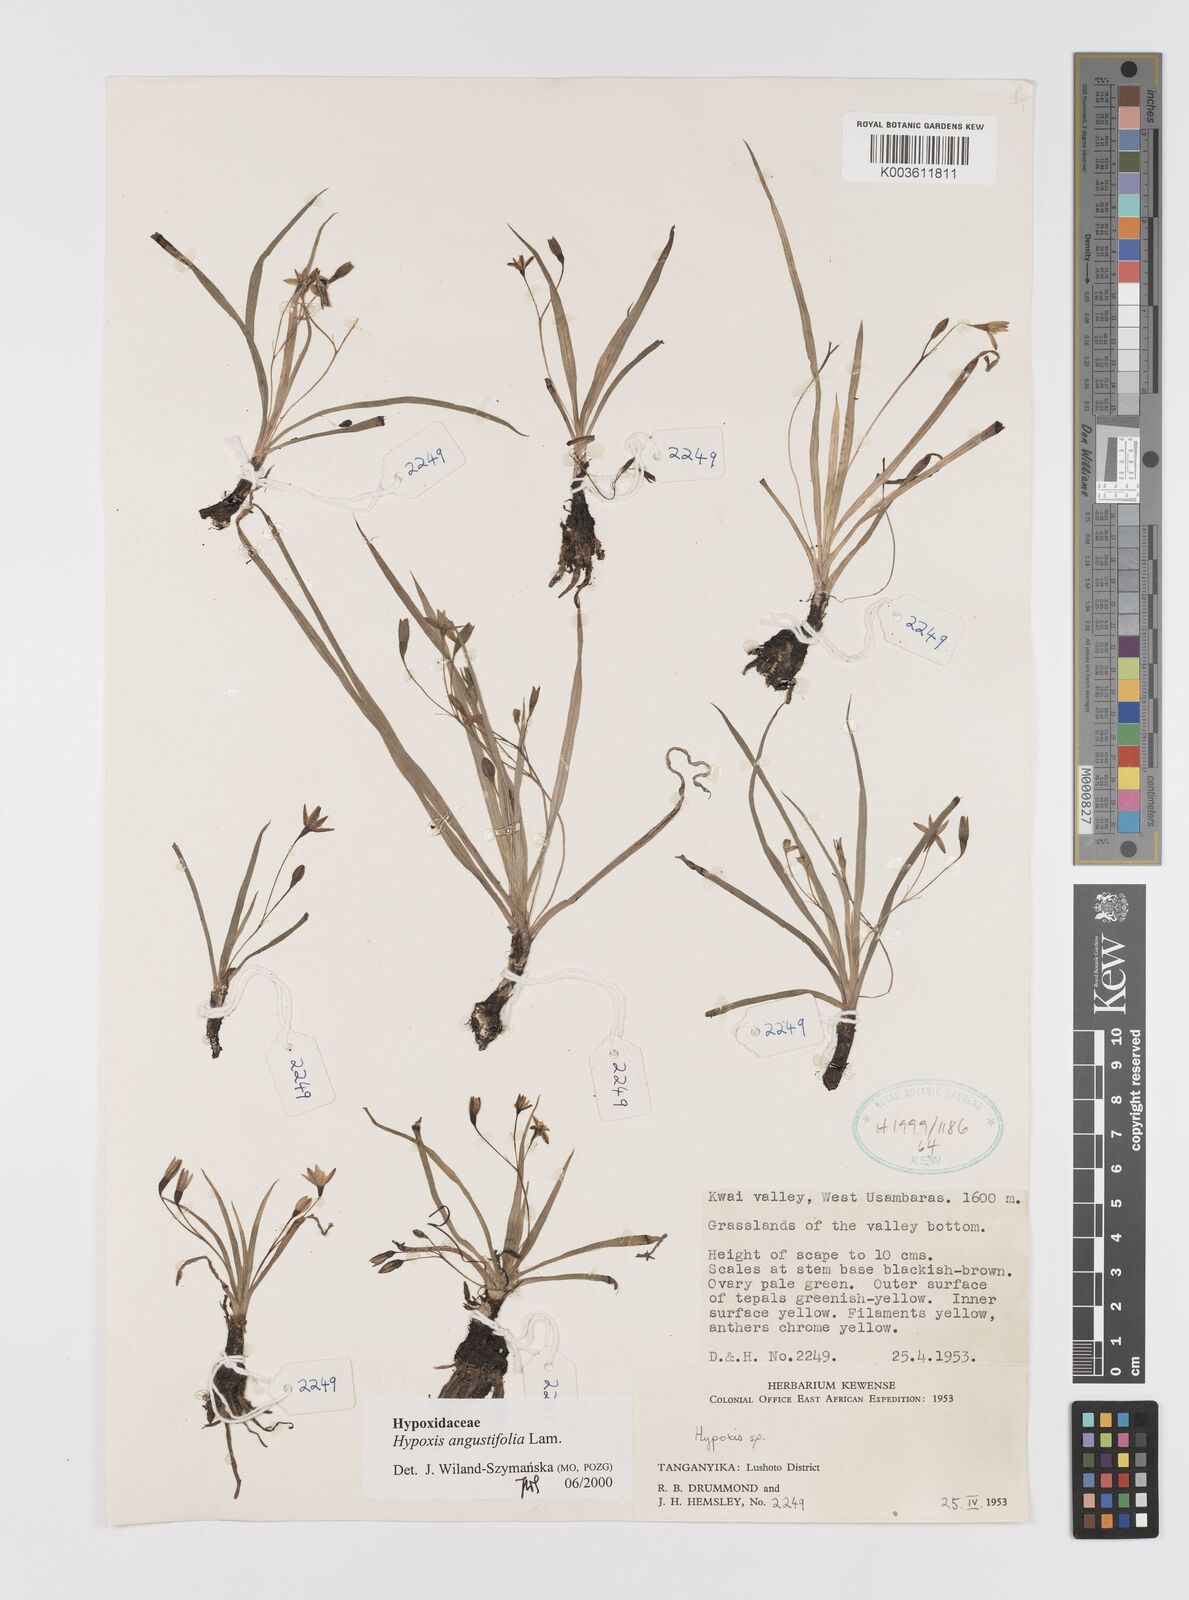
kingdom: Plantae
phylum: Tracheophyta
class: Liliopsida
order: Asparagales
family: Hypoxidaceae
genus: Hypoxis
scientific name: Hypoxis angustifolia
